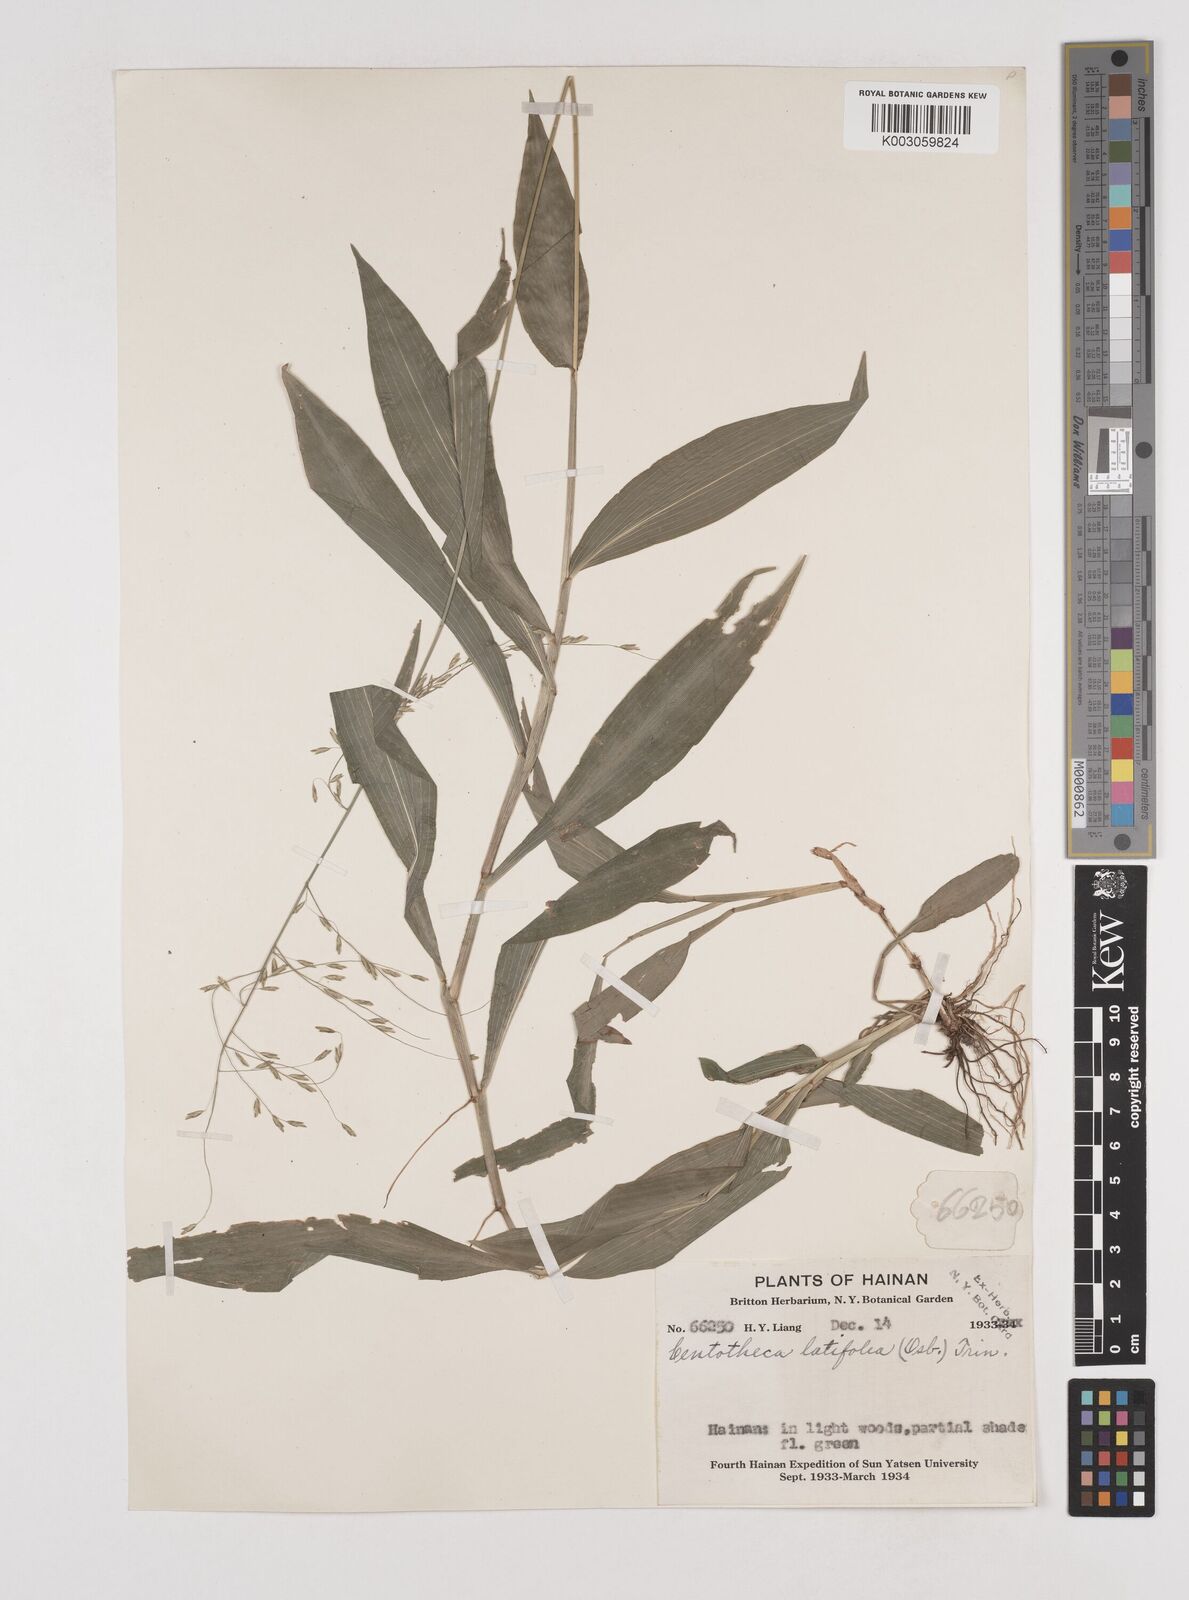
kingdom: Plantae
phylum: Tracheophyta
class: Liliopsida
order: Poales
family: Poaceae
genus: Centotheca
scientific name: Centotheca lappacea
